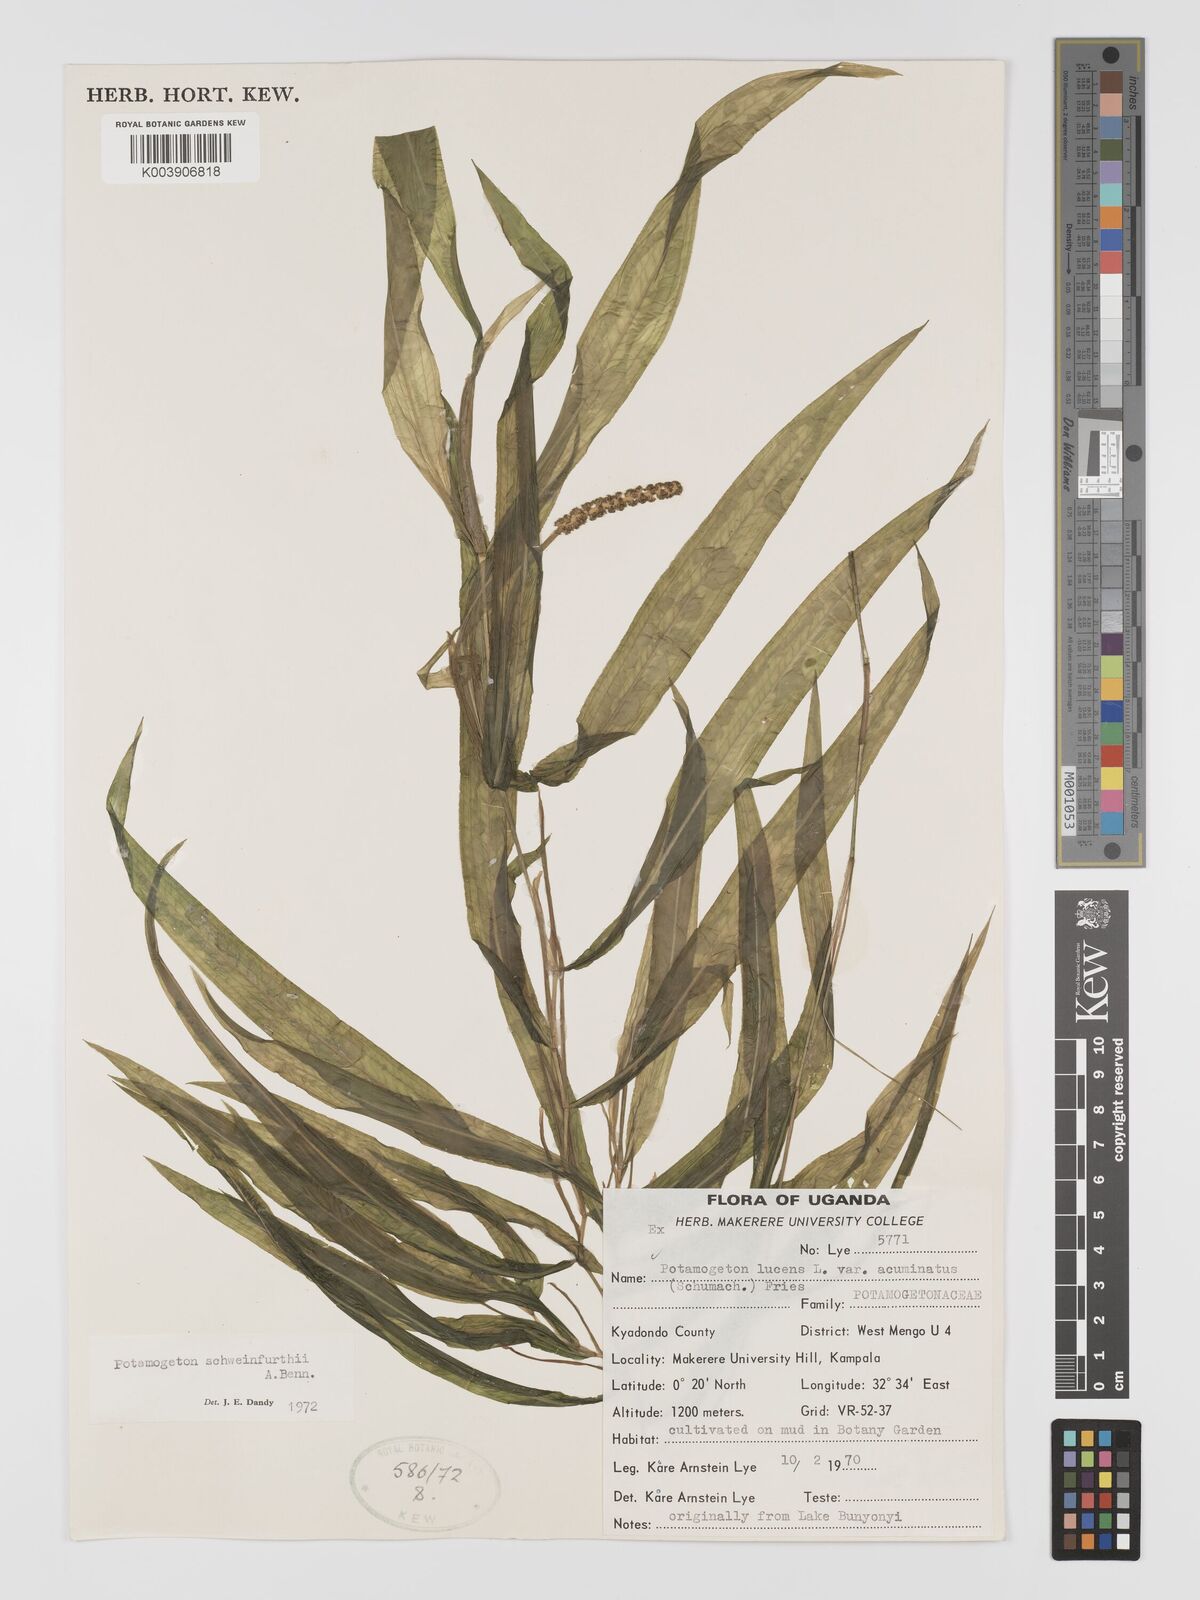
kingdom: Plantae
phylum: Tracheophyta
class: Liliopsida
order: Alismatales
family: Potamogetonaceae
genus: Potamogeton
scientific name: Potamogeton schweinfurthii
